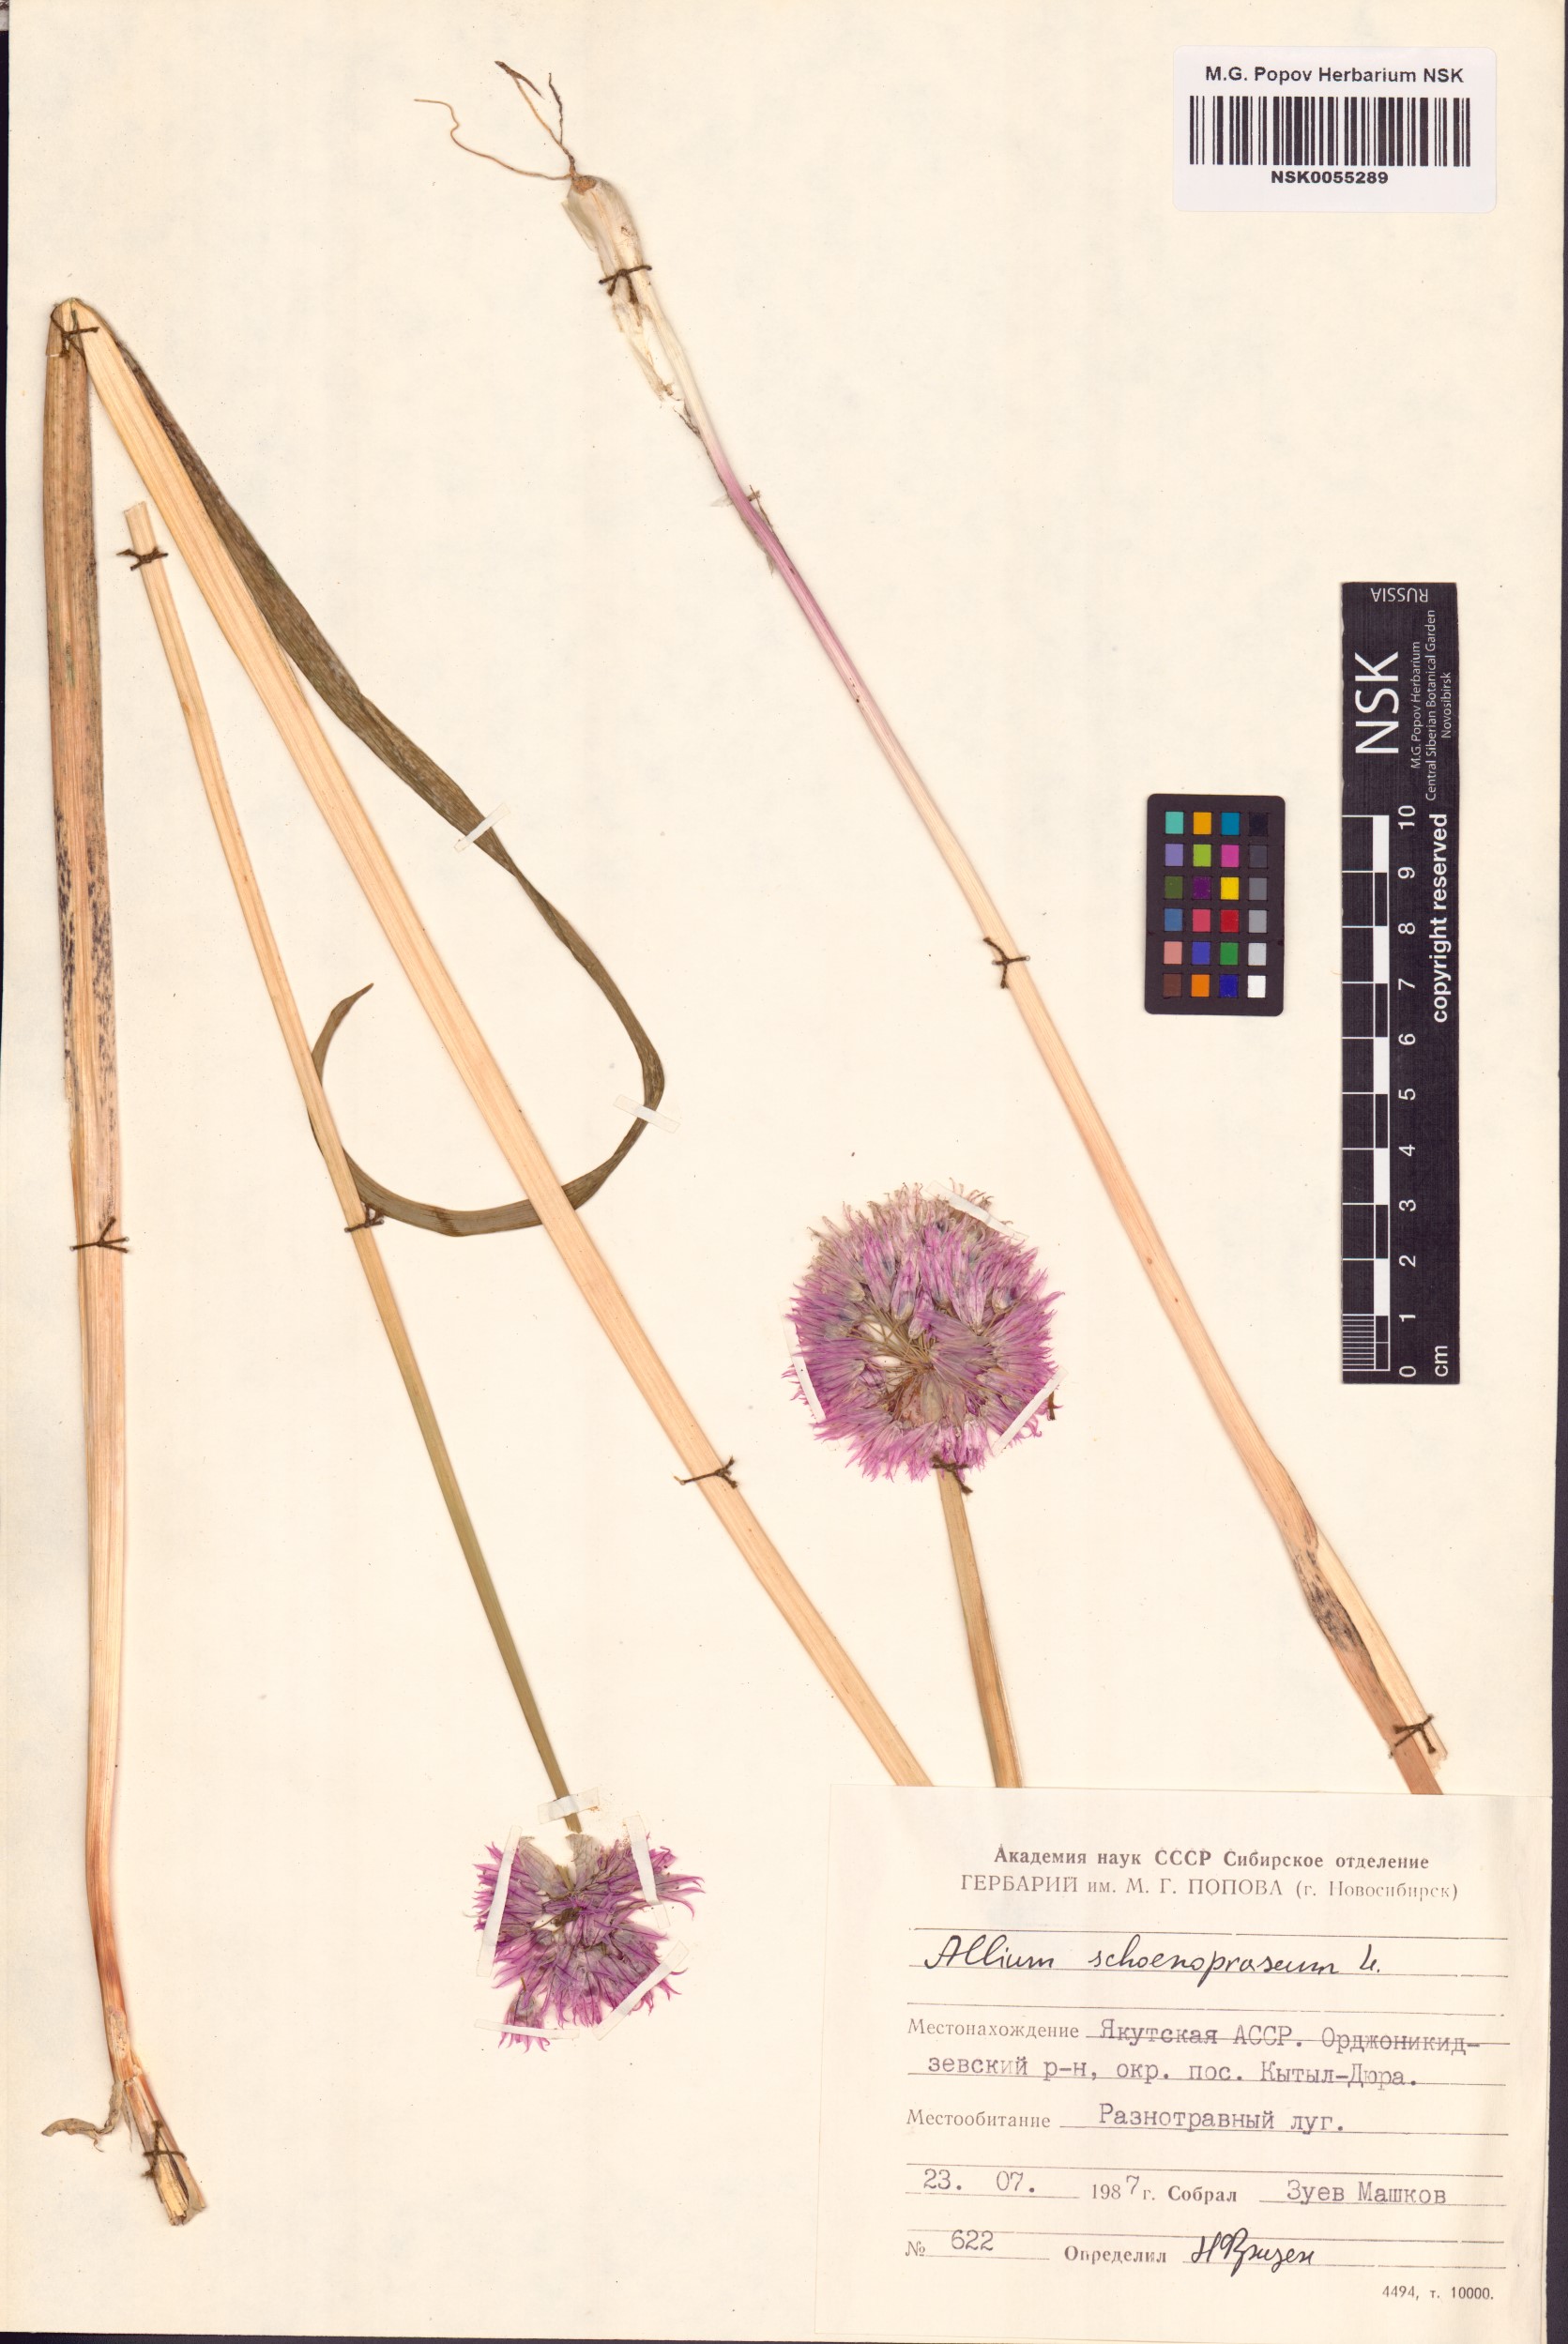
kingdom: Plantae
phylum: Tracheophyta
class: Liliopsida
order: Asparagales
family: Amaryllidaceae
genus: Allium
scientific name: Allium schoenoprasum
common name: Chives
